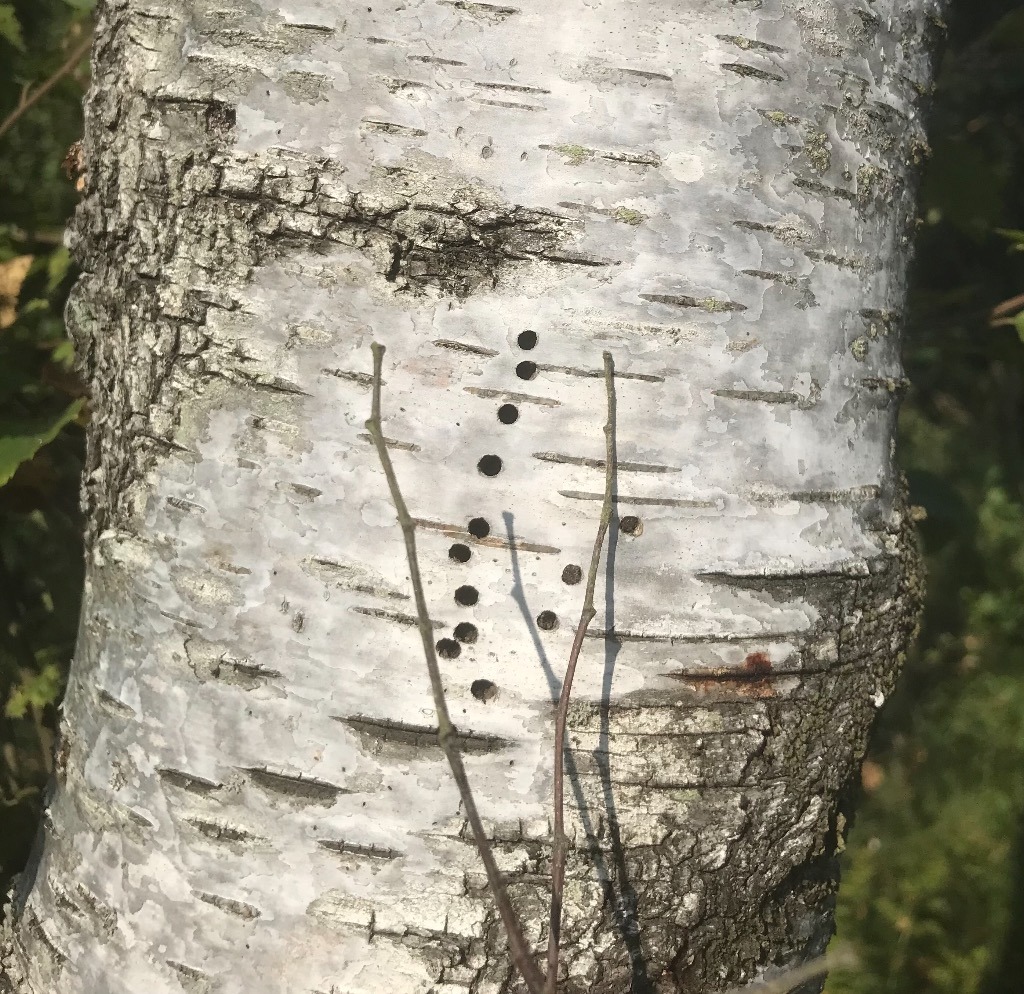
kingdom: Animalia
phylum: Arthropoda
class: Insecta
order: Coleoptera
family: Curculionidae
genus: Scolytus
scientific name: Scolytus ratzeburgii
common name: Birkebarkbille
